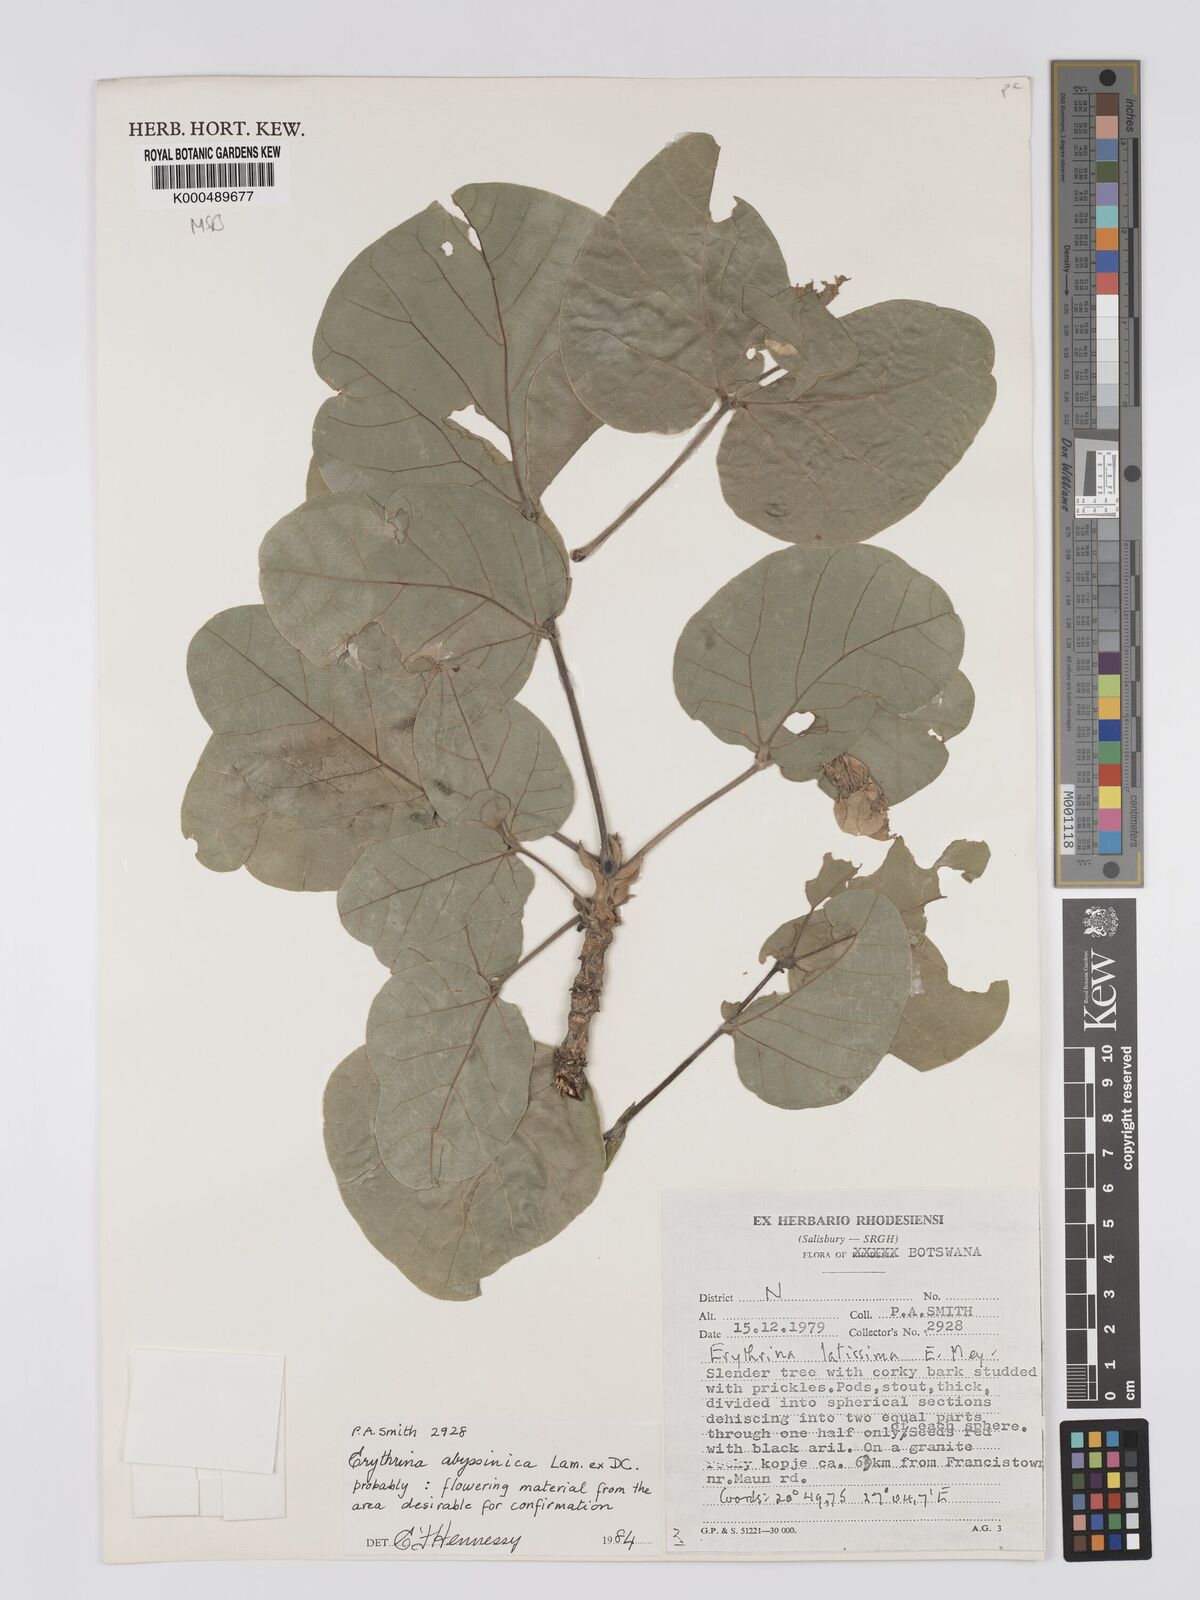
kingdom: Plantae
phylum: Tracheophyta
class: Magnoliopsida
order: Fabales
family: Fabaceae
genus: Erythrina
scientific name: Erythrina
